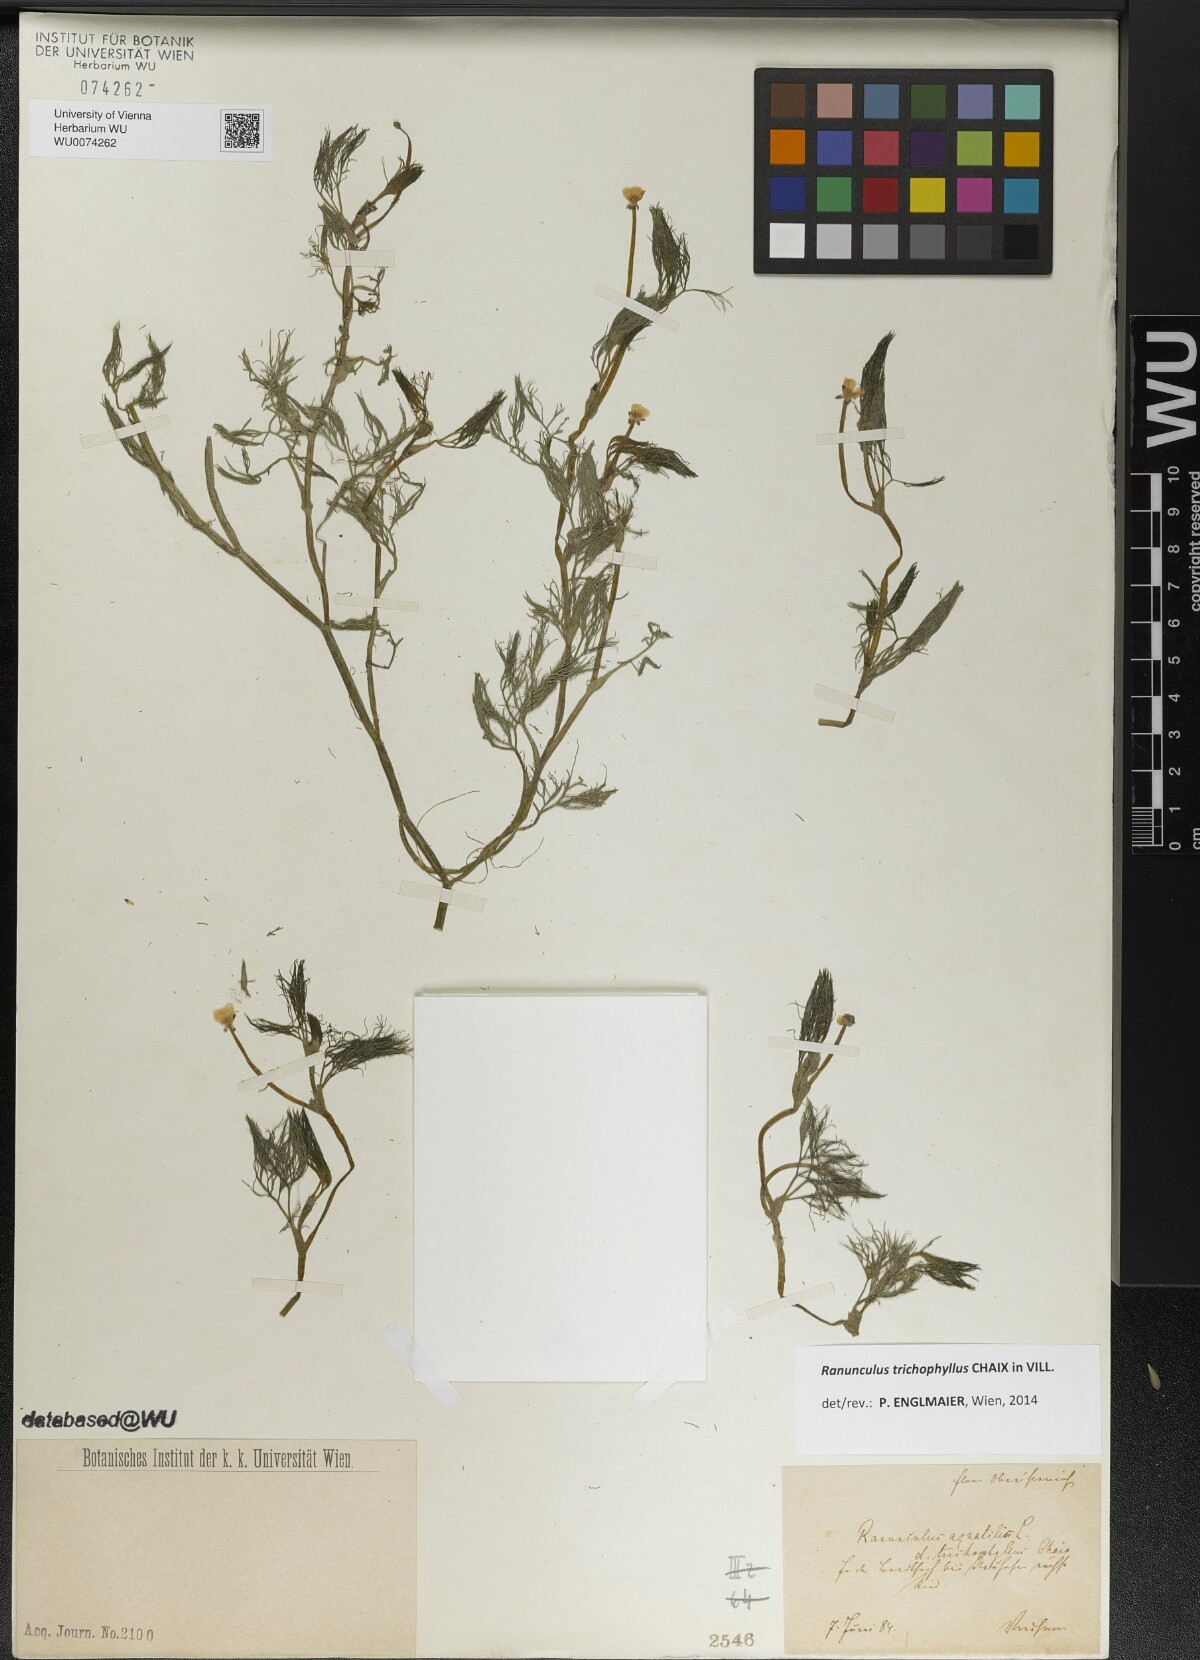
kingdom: Plantae
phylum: Tracheophyta
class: Magnoliopsida
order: Ranunculales
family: Ranunculaceae
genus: Ranunculus
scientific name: Ranunculus trichophyllus
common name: Thread-leaved water-crowfoot
